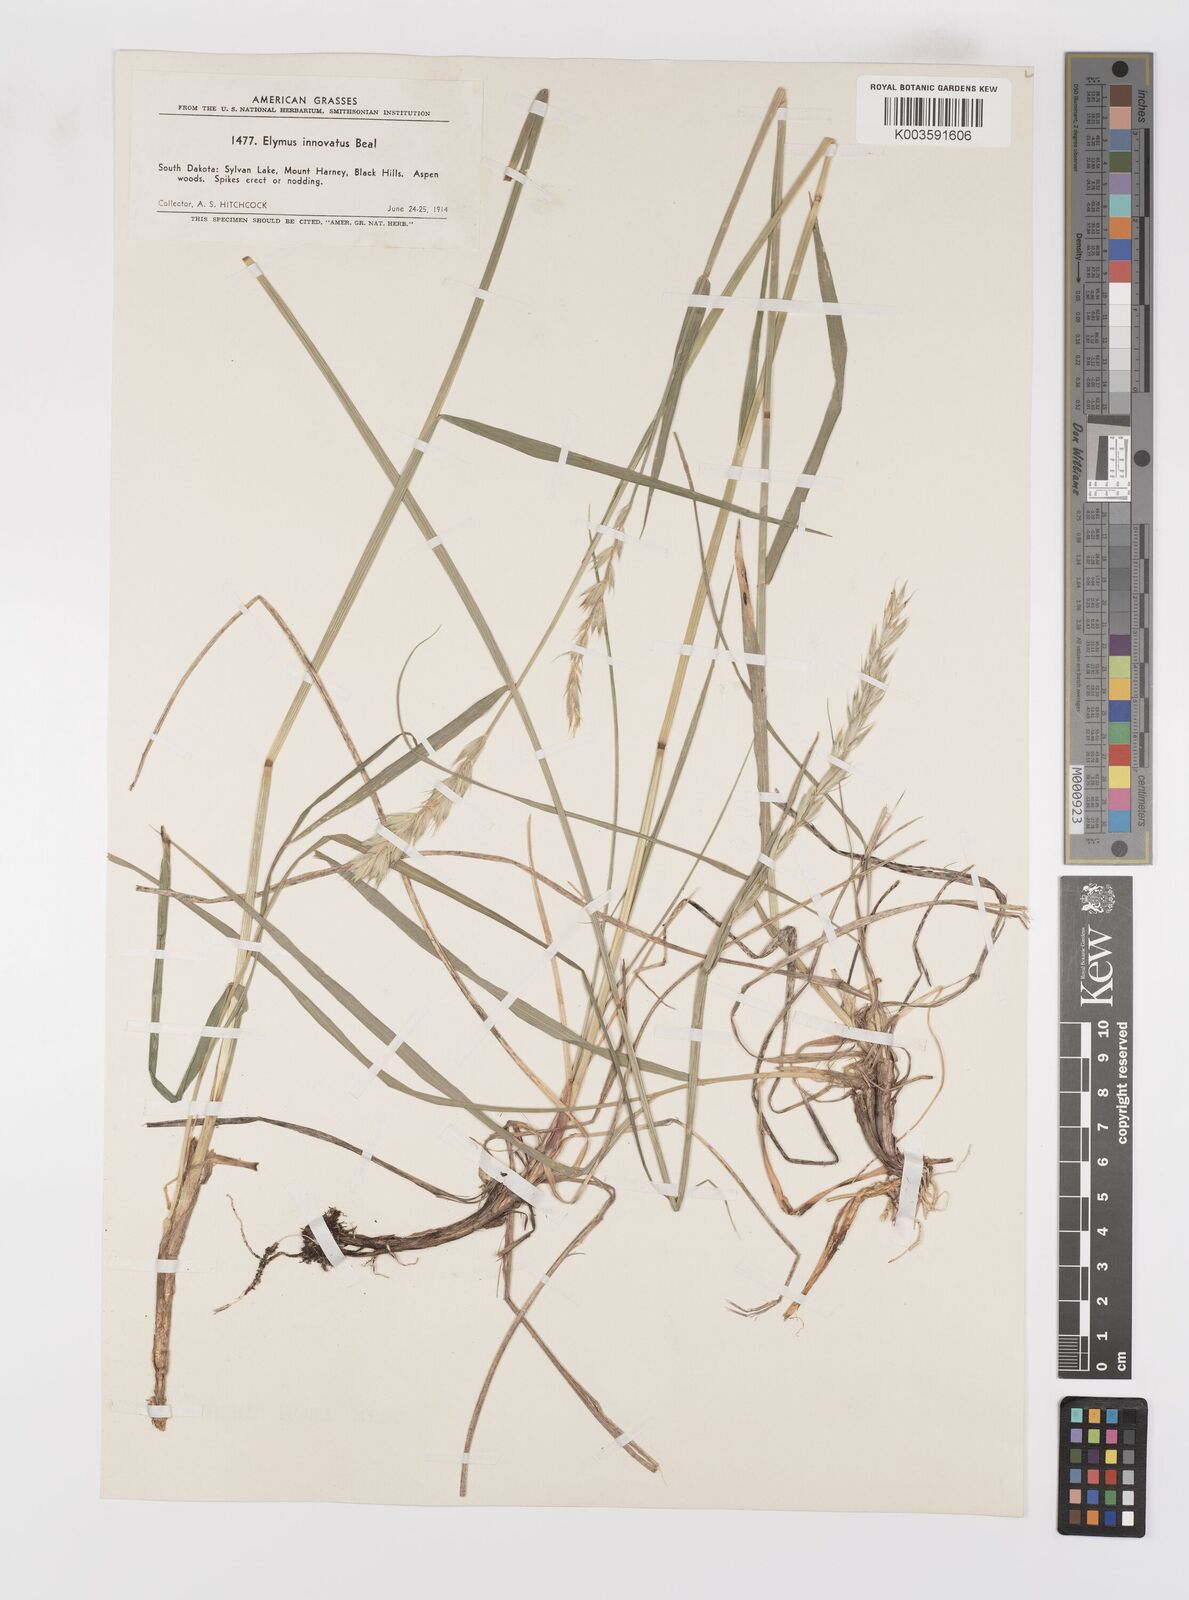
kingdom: Plantae
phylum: Tracheophyta
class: Liliopsida
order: Poales
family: Poaceae
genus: Leymus
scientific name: Leymus innovatus
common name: Boreal wild rye
